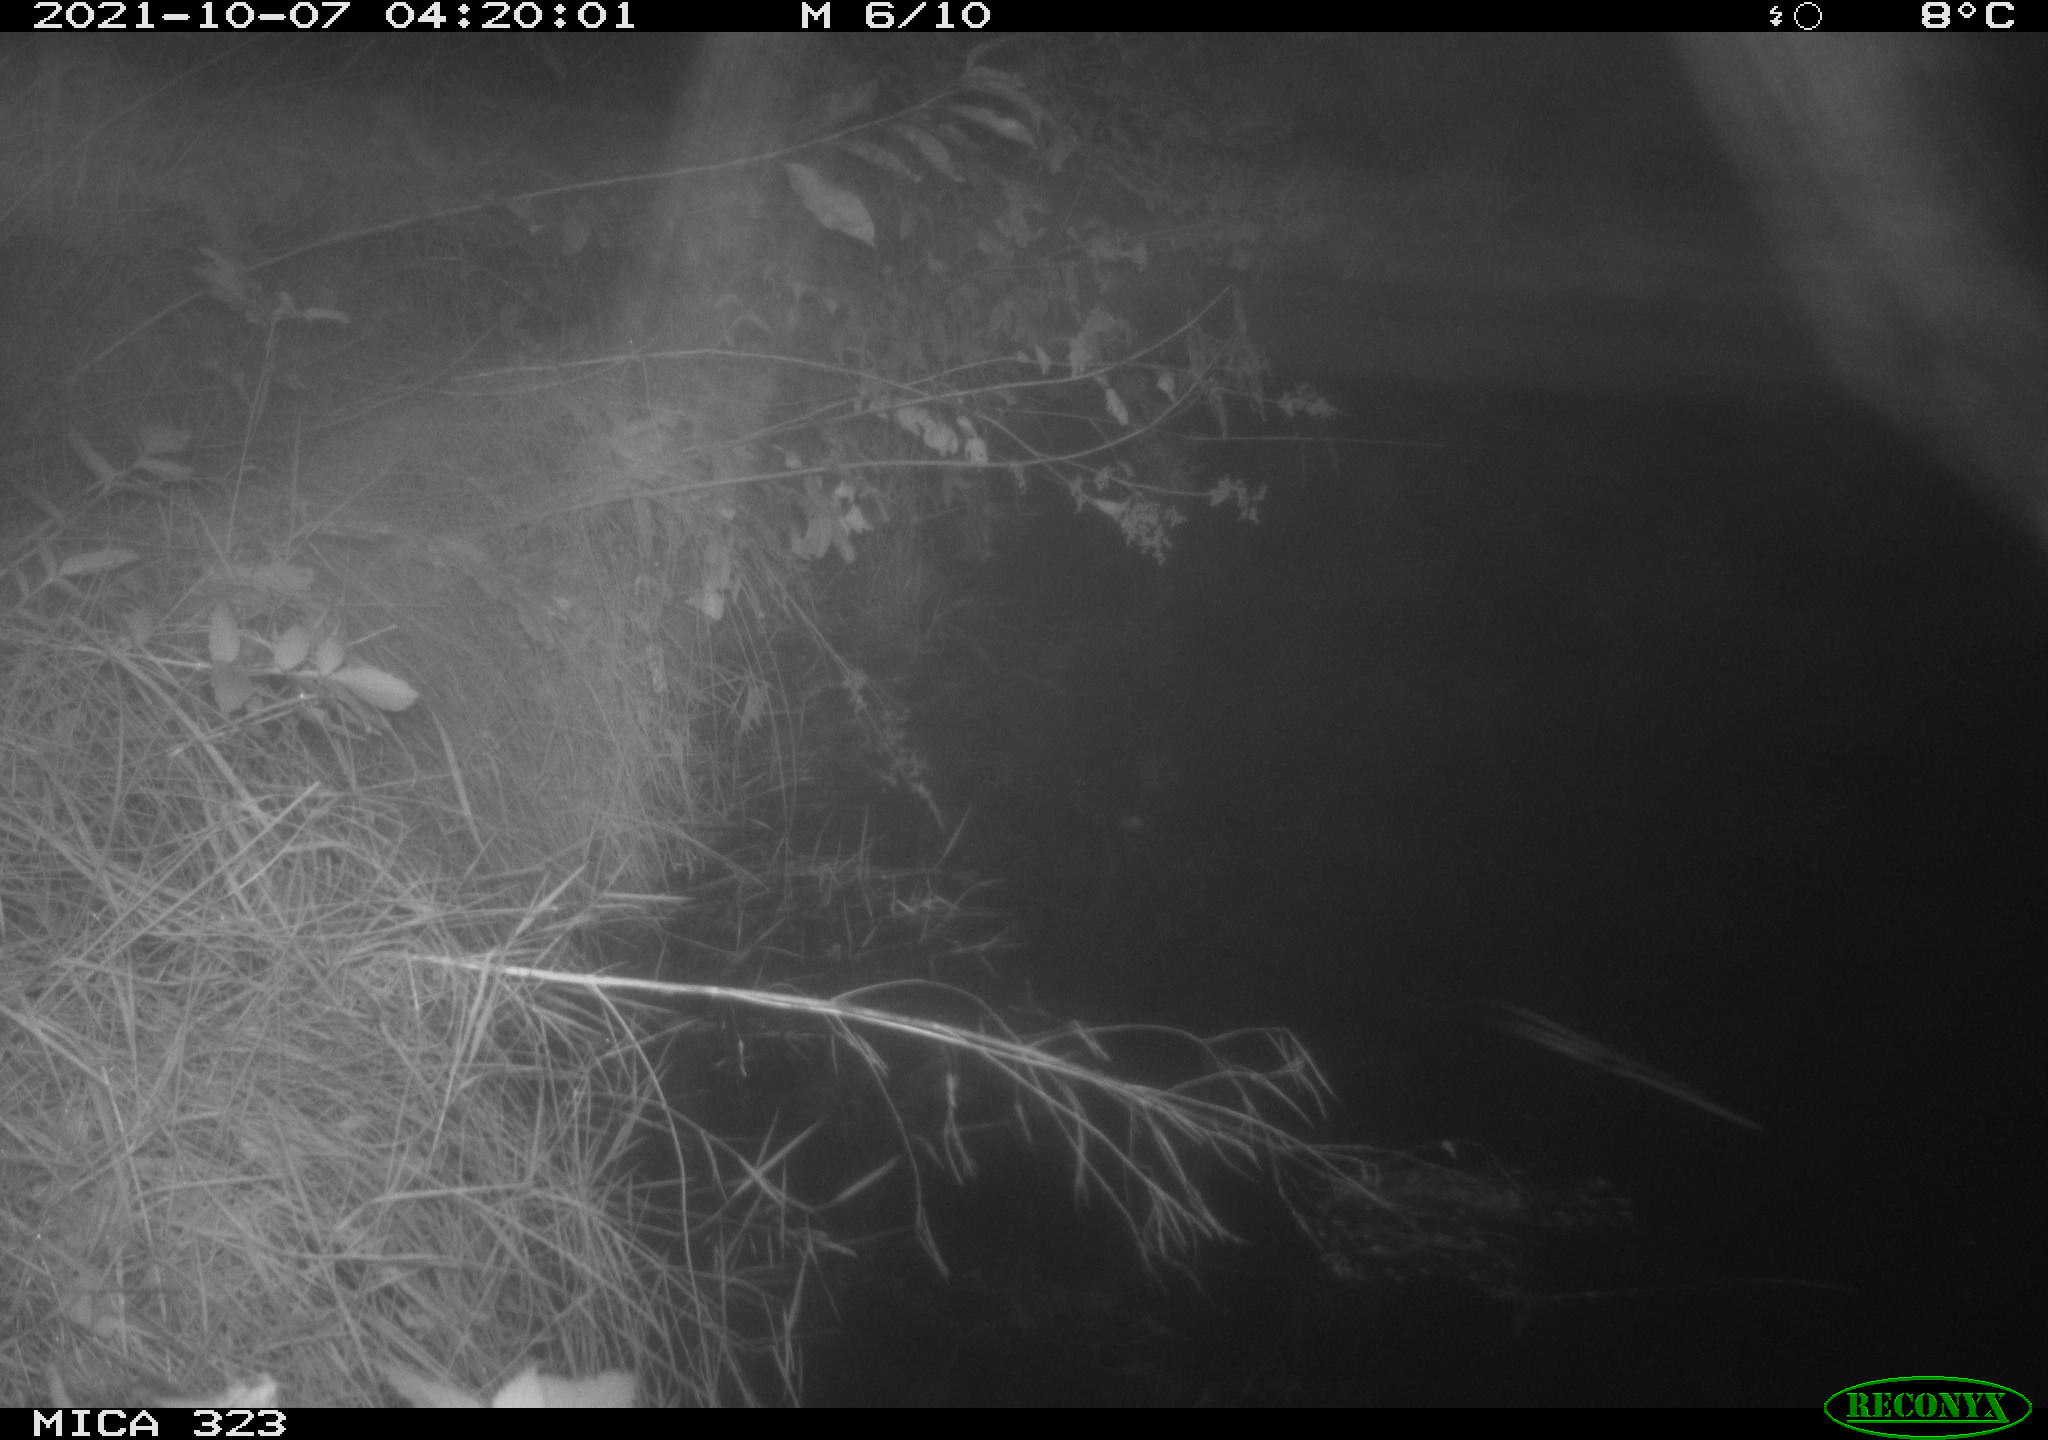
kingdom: Animalia
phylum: Chordata
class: Aves
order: Anseriformes
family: Anatidae
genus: Anas
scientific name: Anas
